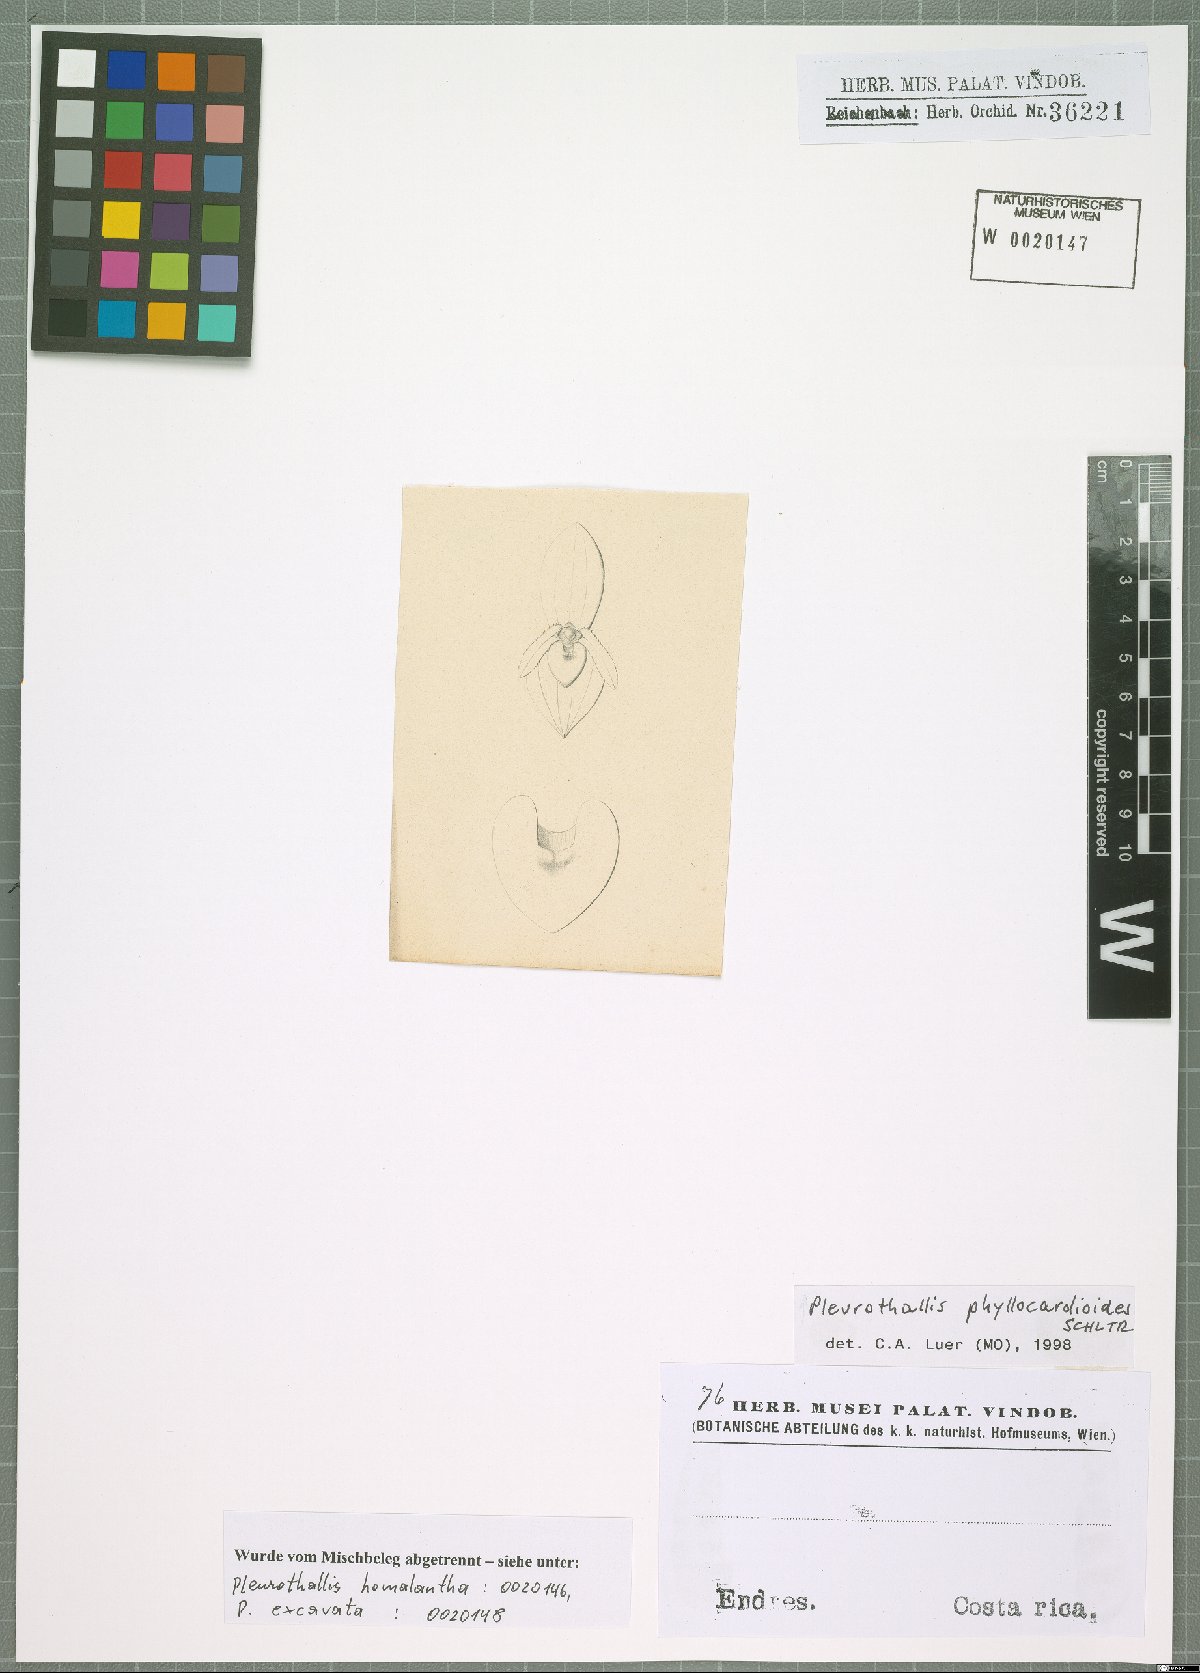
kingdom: Plantae
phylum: Tracheophyta
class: Liliopsida
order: Asparagales
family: Orchidaceae
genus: Pleurothallis
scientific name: Pleurothallis phyllocardioides
